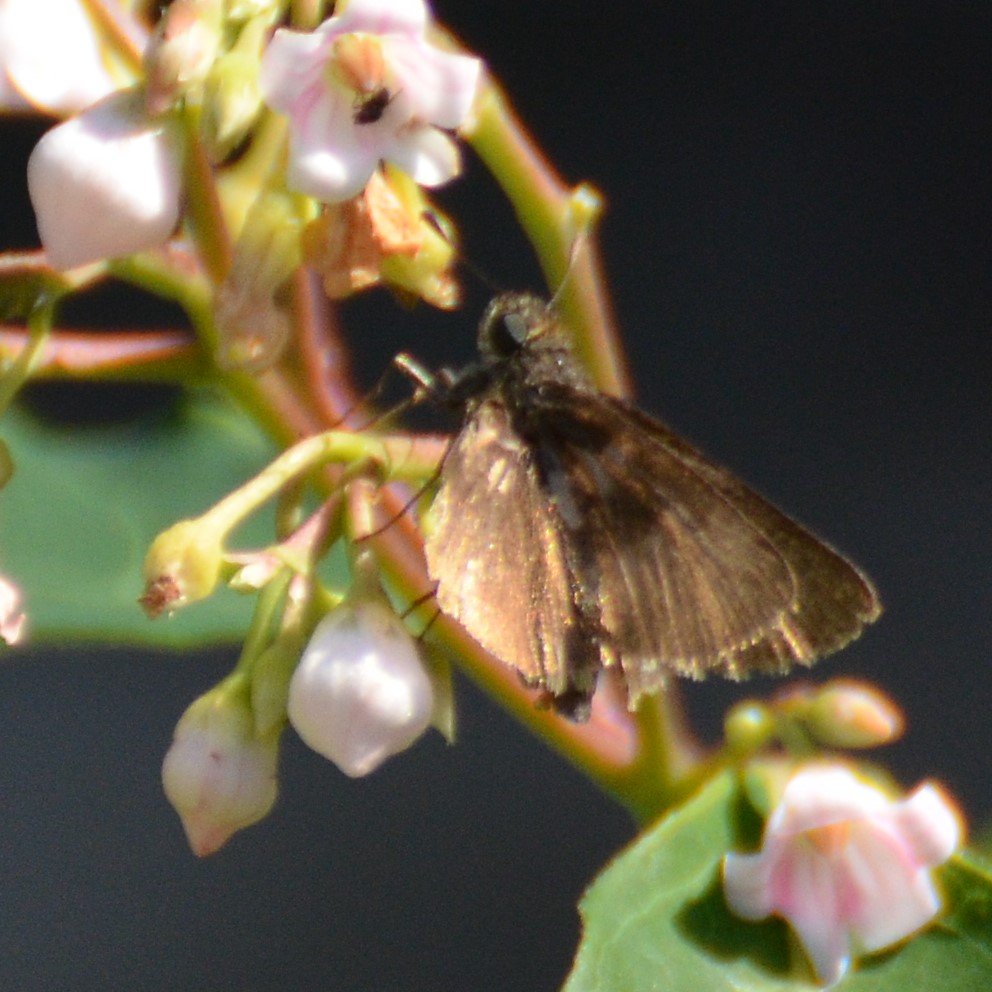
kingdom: Animalia
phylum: Arthropoda
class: Insecta
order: Lepidoptera
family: Hesperiidae
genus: Euphyes
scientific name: Euphyes vestris
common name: Dun Skipper
